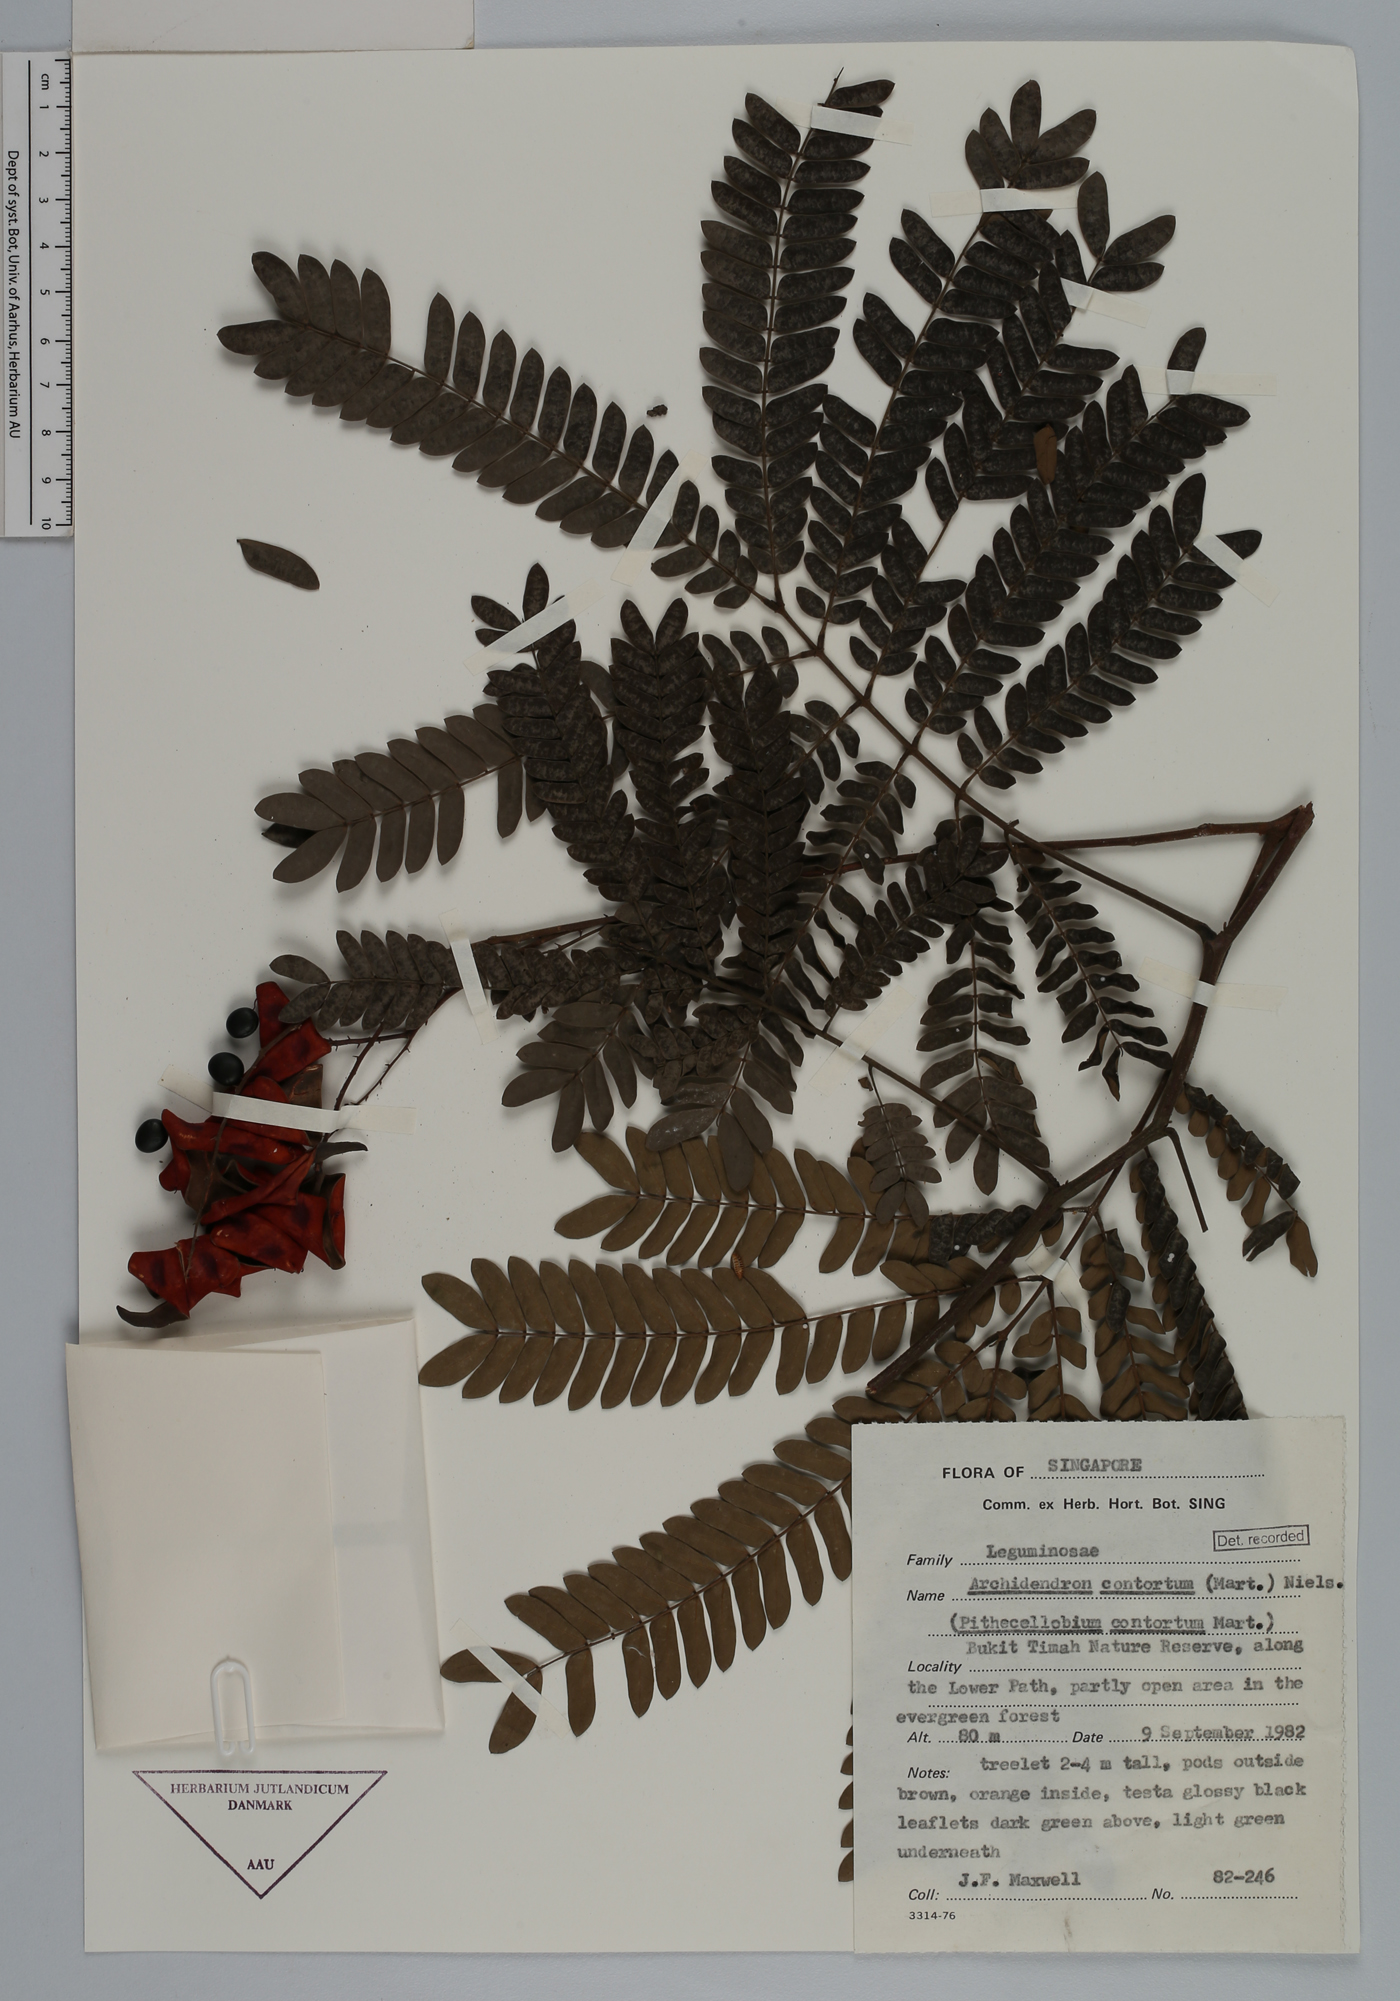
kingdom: Plantae
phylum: Tracheophyta
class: Magnoliopsida
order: Fabales
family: Fabaceae
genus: Archidendron
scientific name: Archidendron contortum
